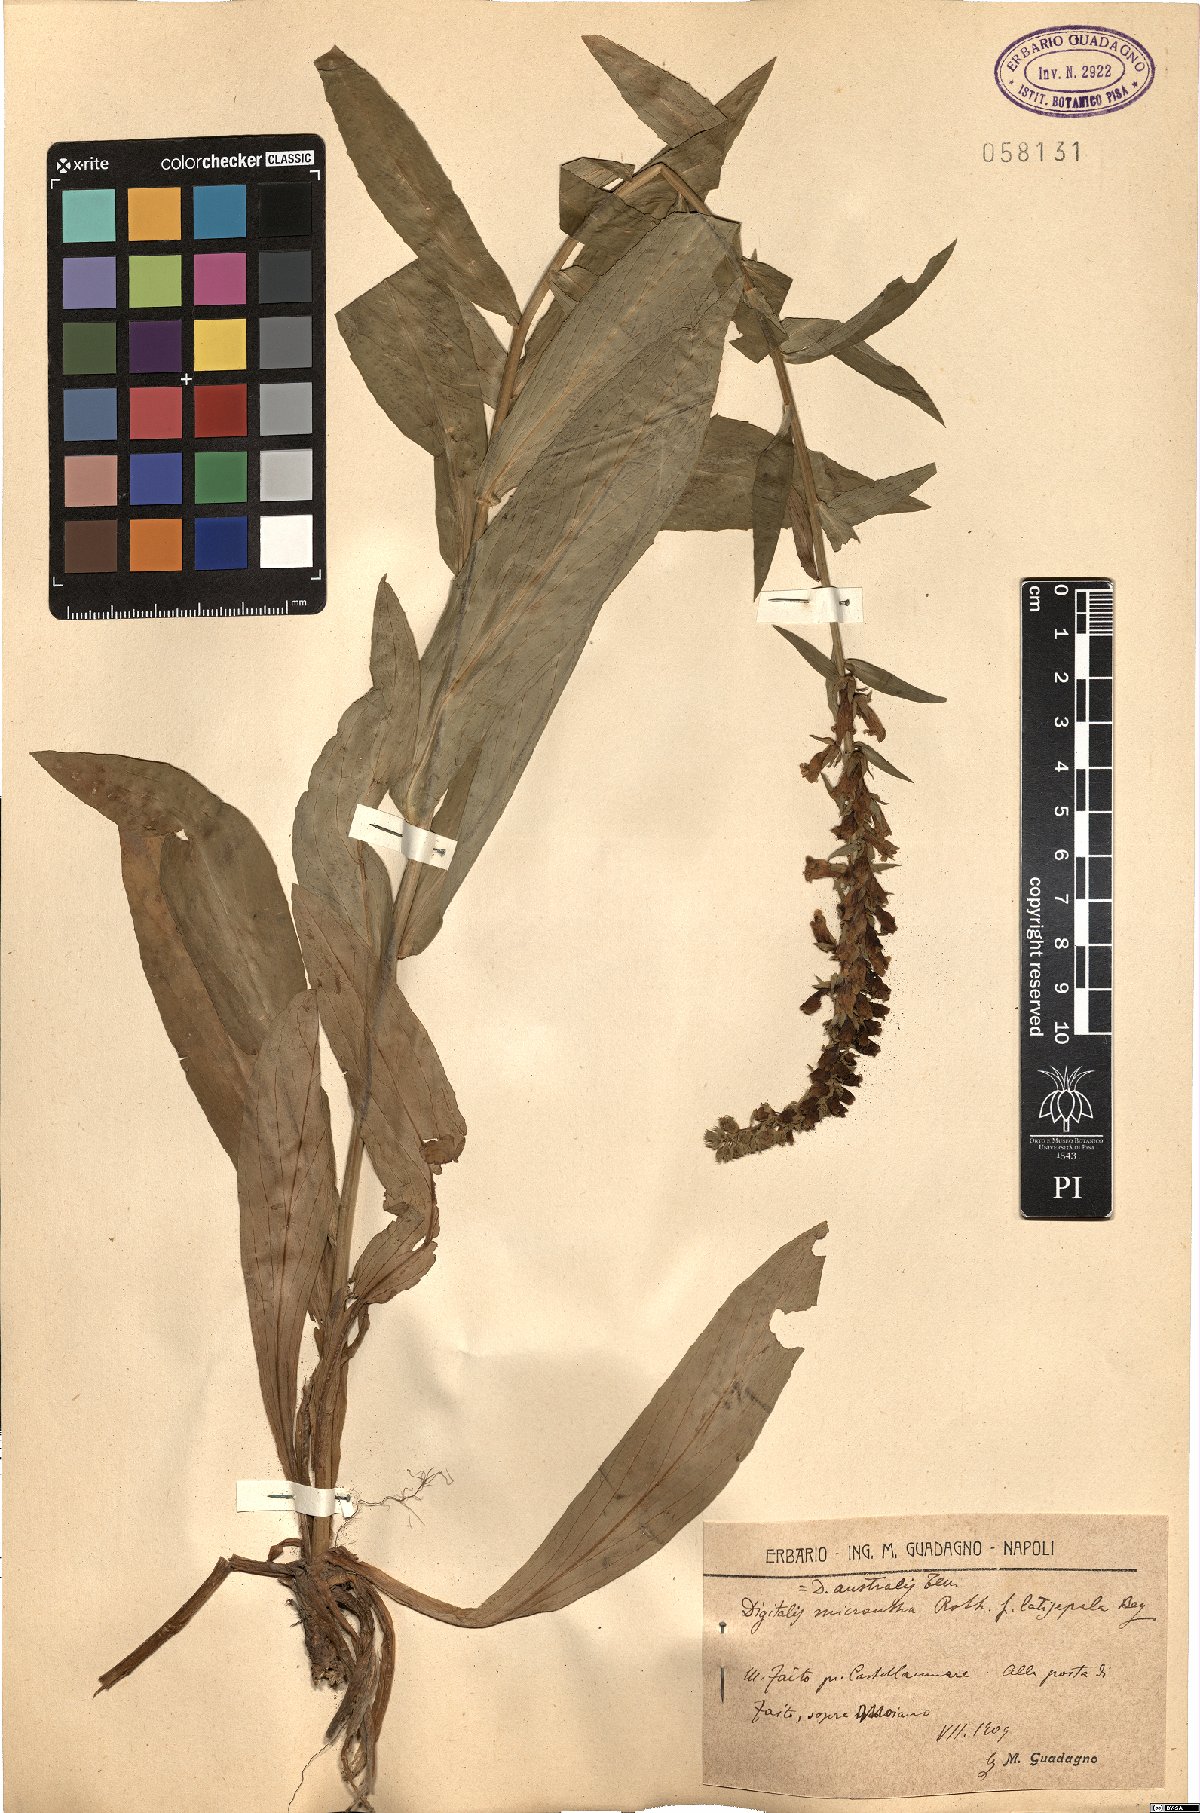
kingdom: Plantae
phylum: Tracheophyta
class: Magnoliopsida
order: Lamiales
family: Plantaginaceae
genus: Digitalis
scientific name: Digitalis lutea
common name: Straw foxglove
